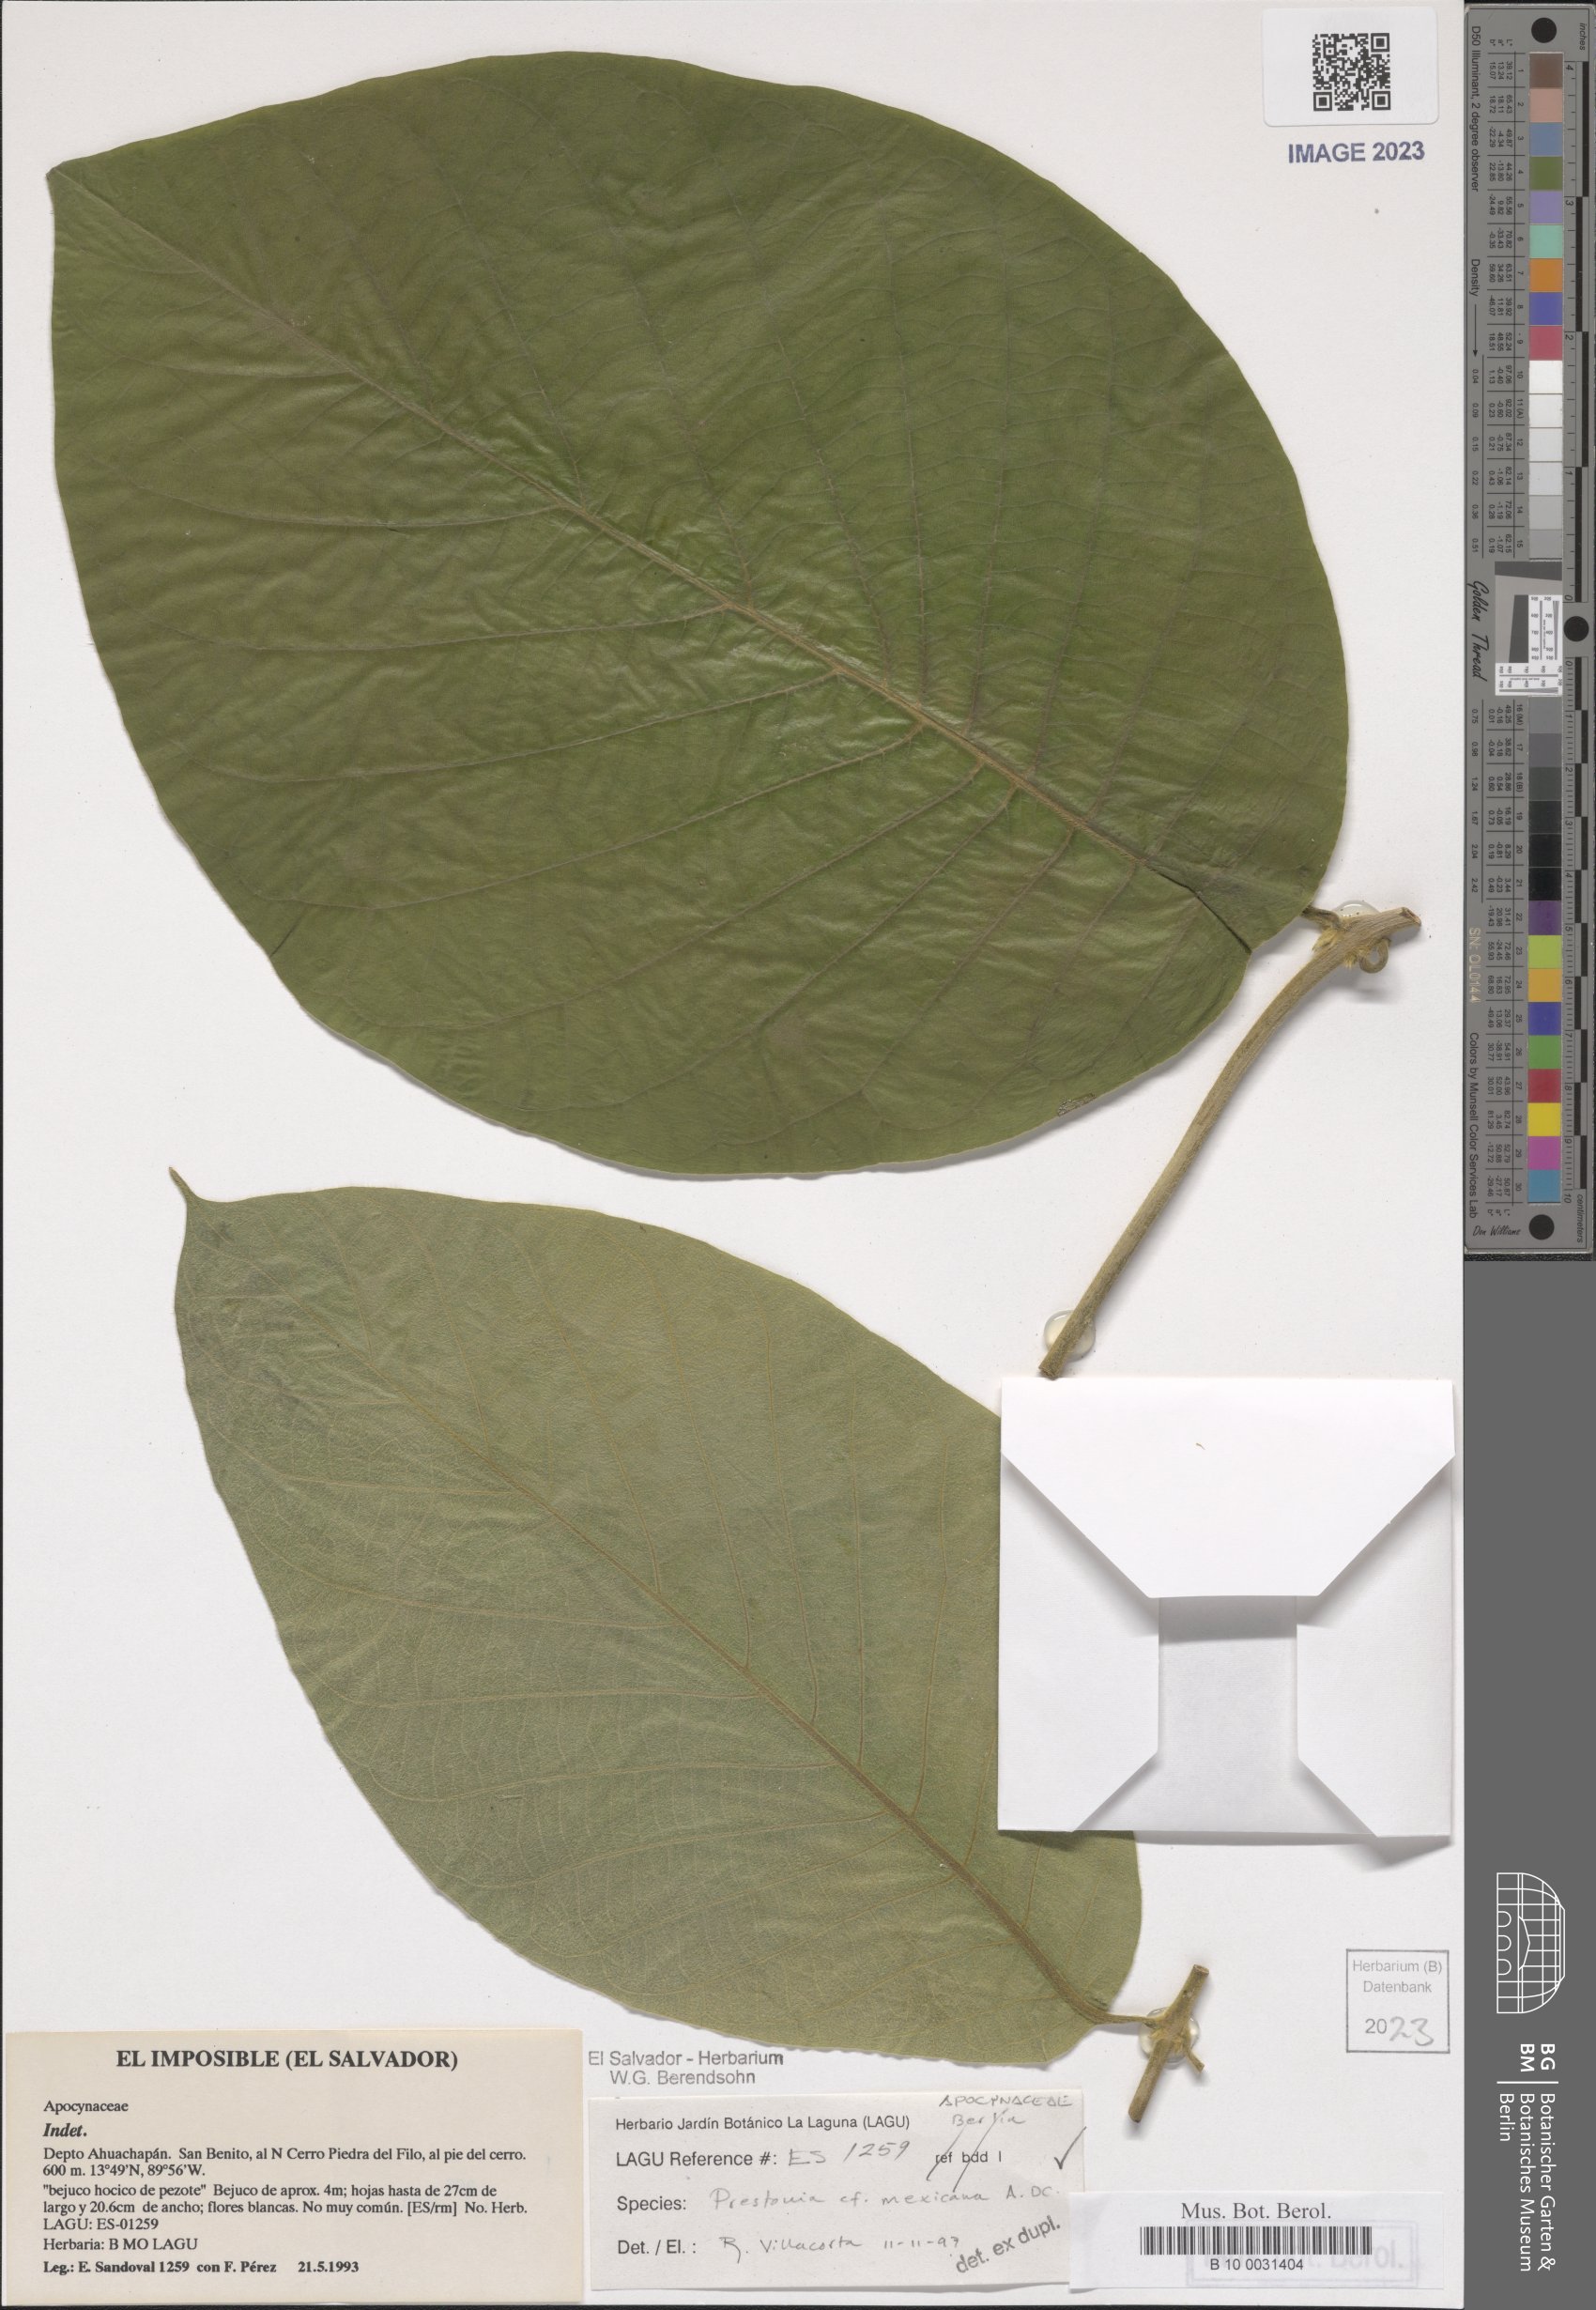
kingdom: Plantae
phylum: Tracheophyta
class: Magnoliopsida
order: Gentianales
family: Apocynaceae
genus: Prestonia
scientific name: Prestonia mexicana
